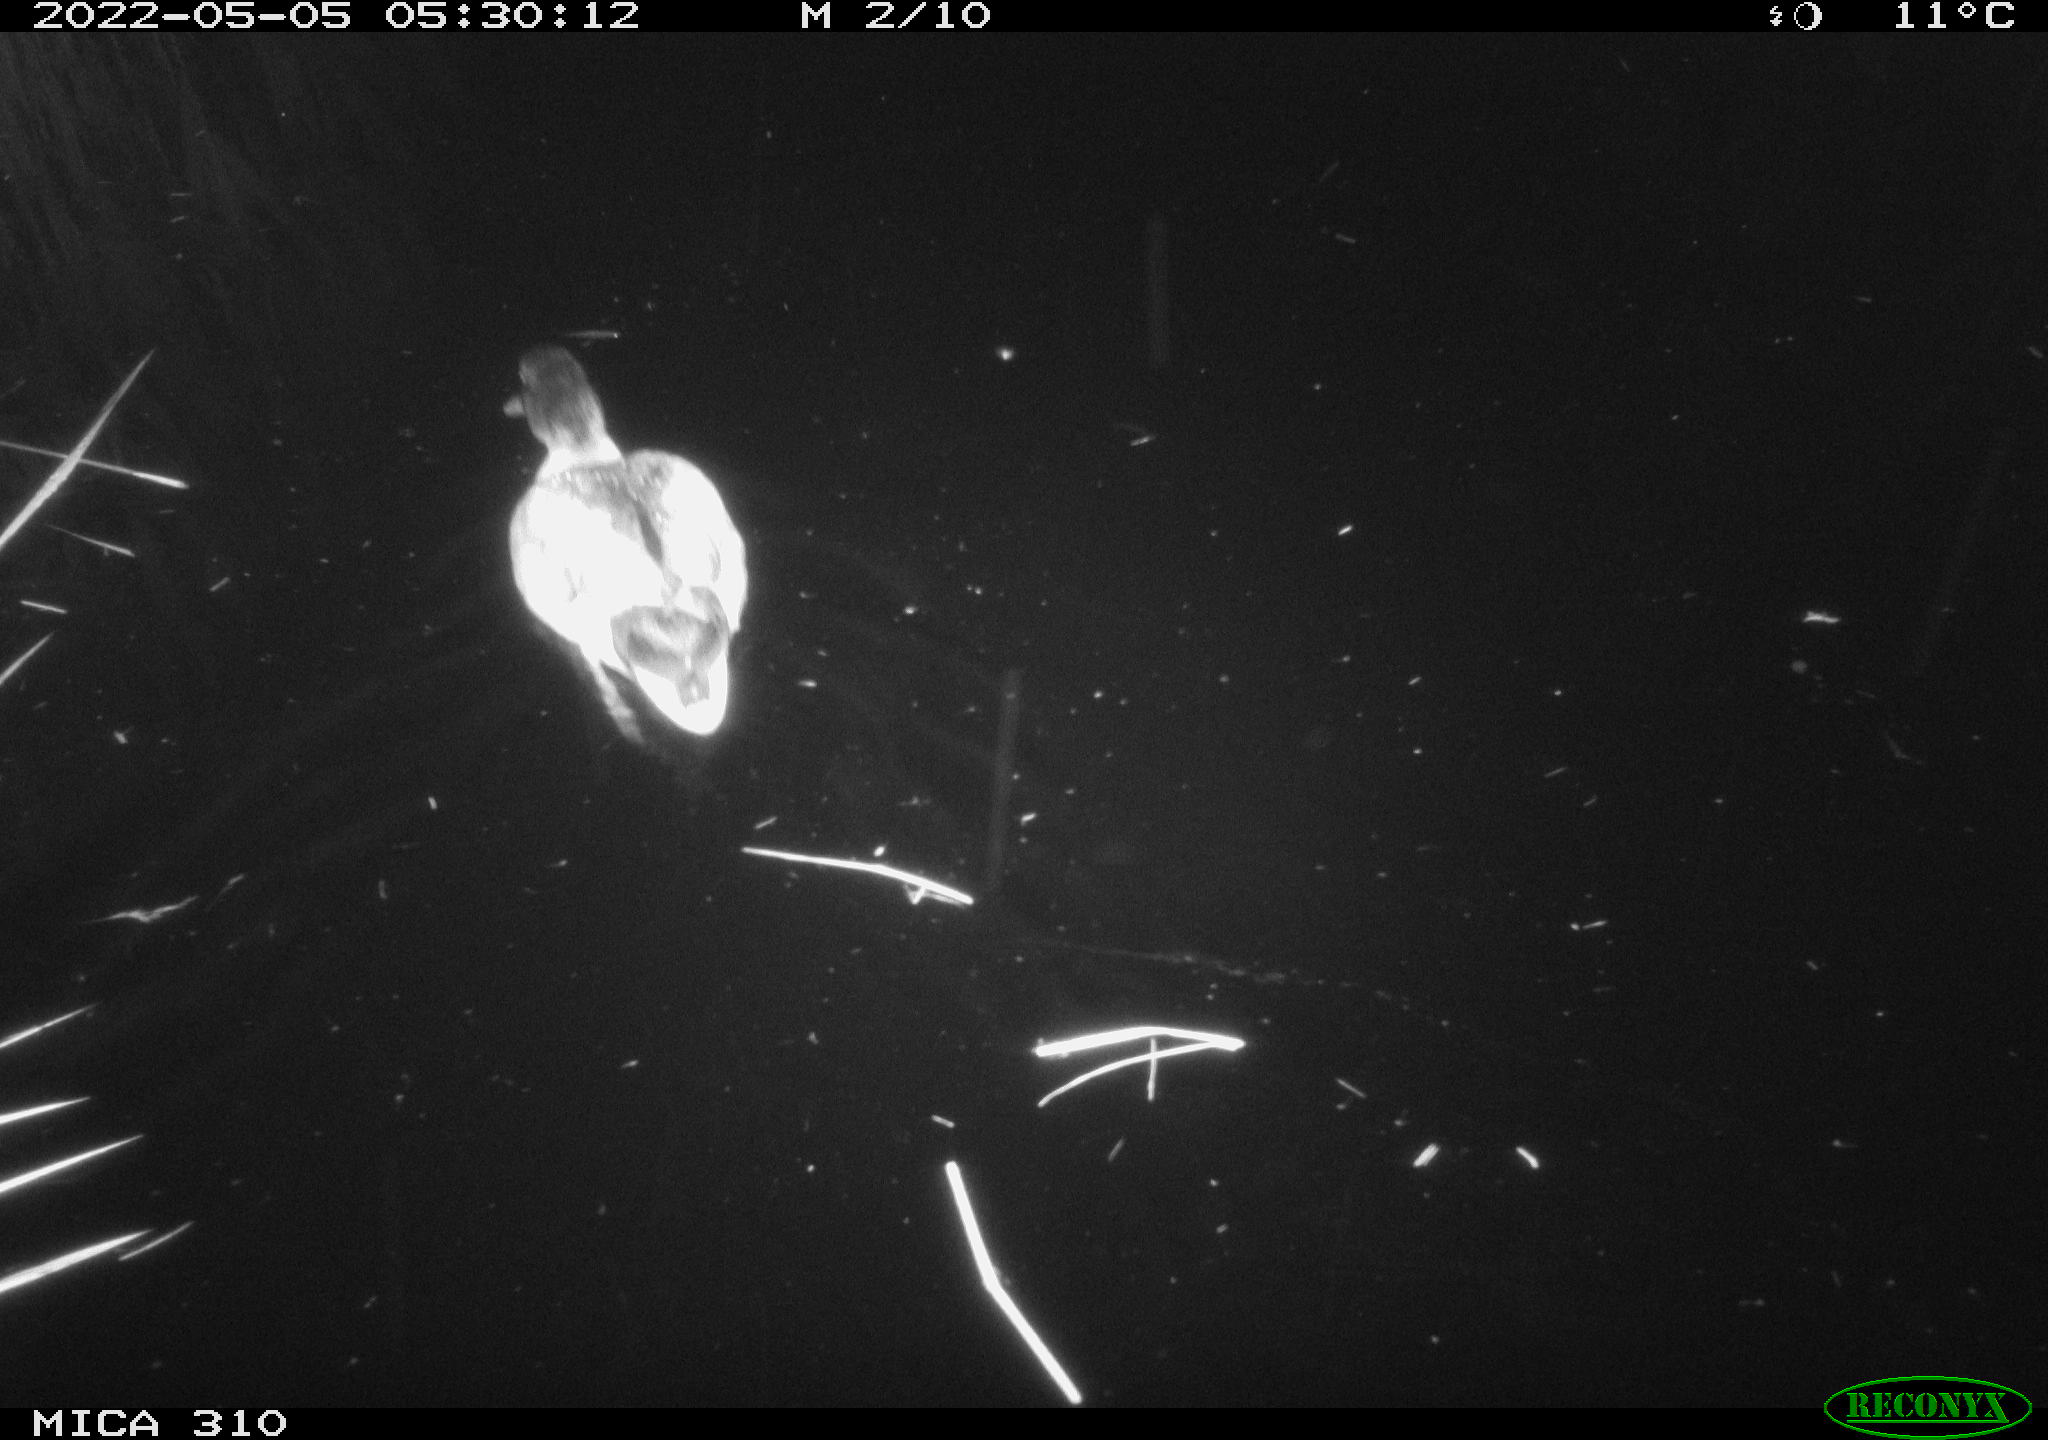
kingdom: Animalia
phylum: Chordata
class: Aves
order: Anseriformes
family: Anatidae
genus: Anas
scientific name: Anas platyrhynchos
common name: Mallard
